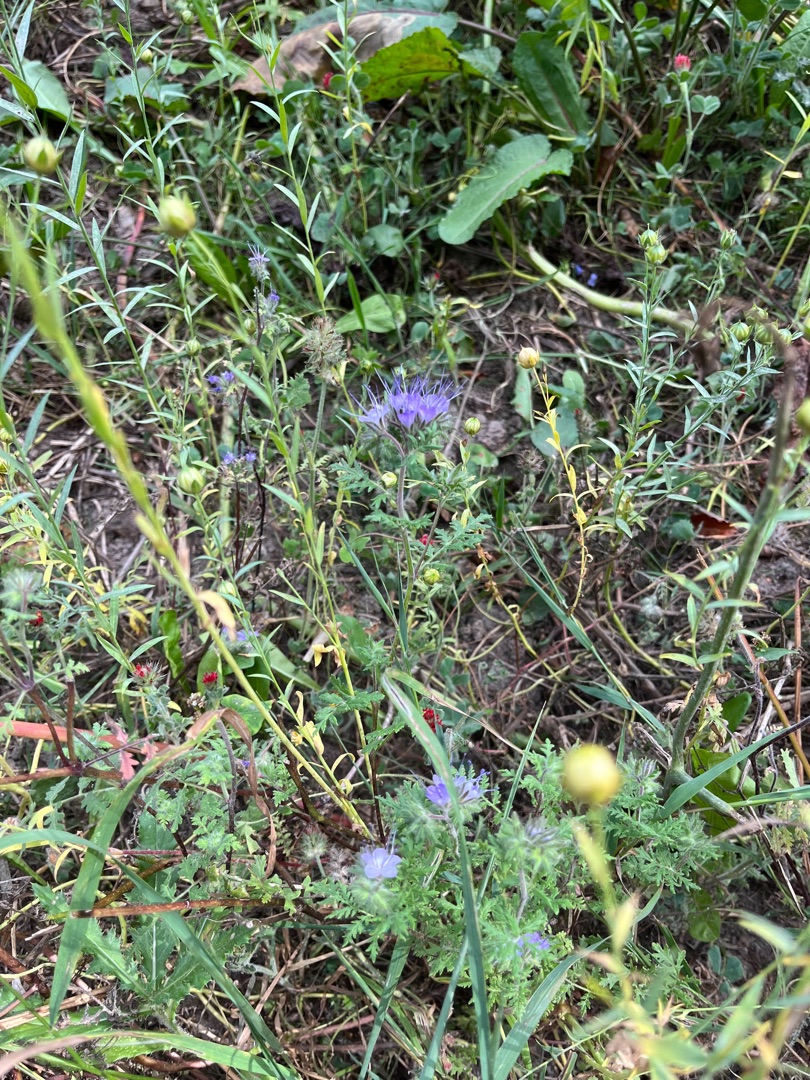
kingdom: Plantae
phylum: Tracheophyta
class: Magnoliopsida
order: Boraginales
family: Hydrophyllaceae
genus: Phacelia
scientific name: Phacelia tanacetifolia
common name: Honningurt
